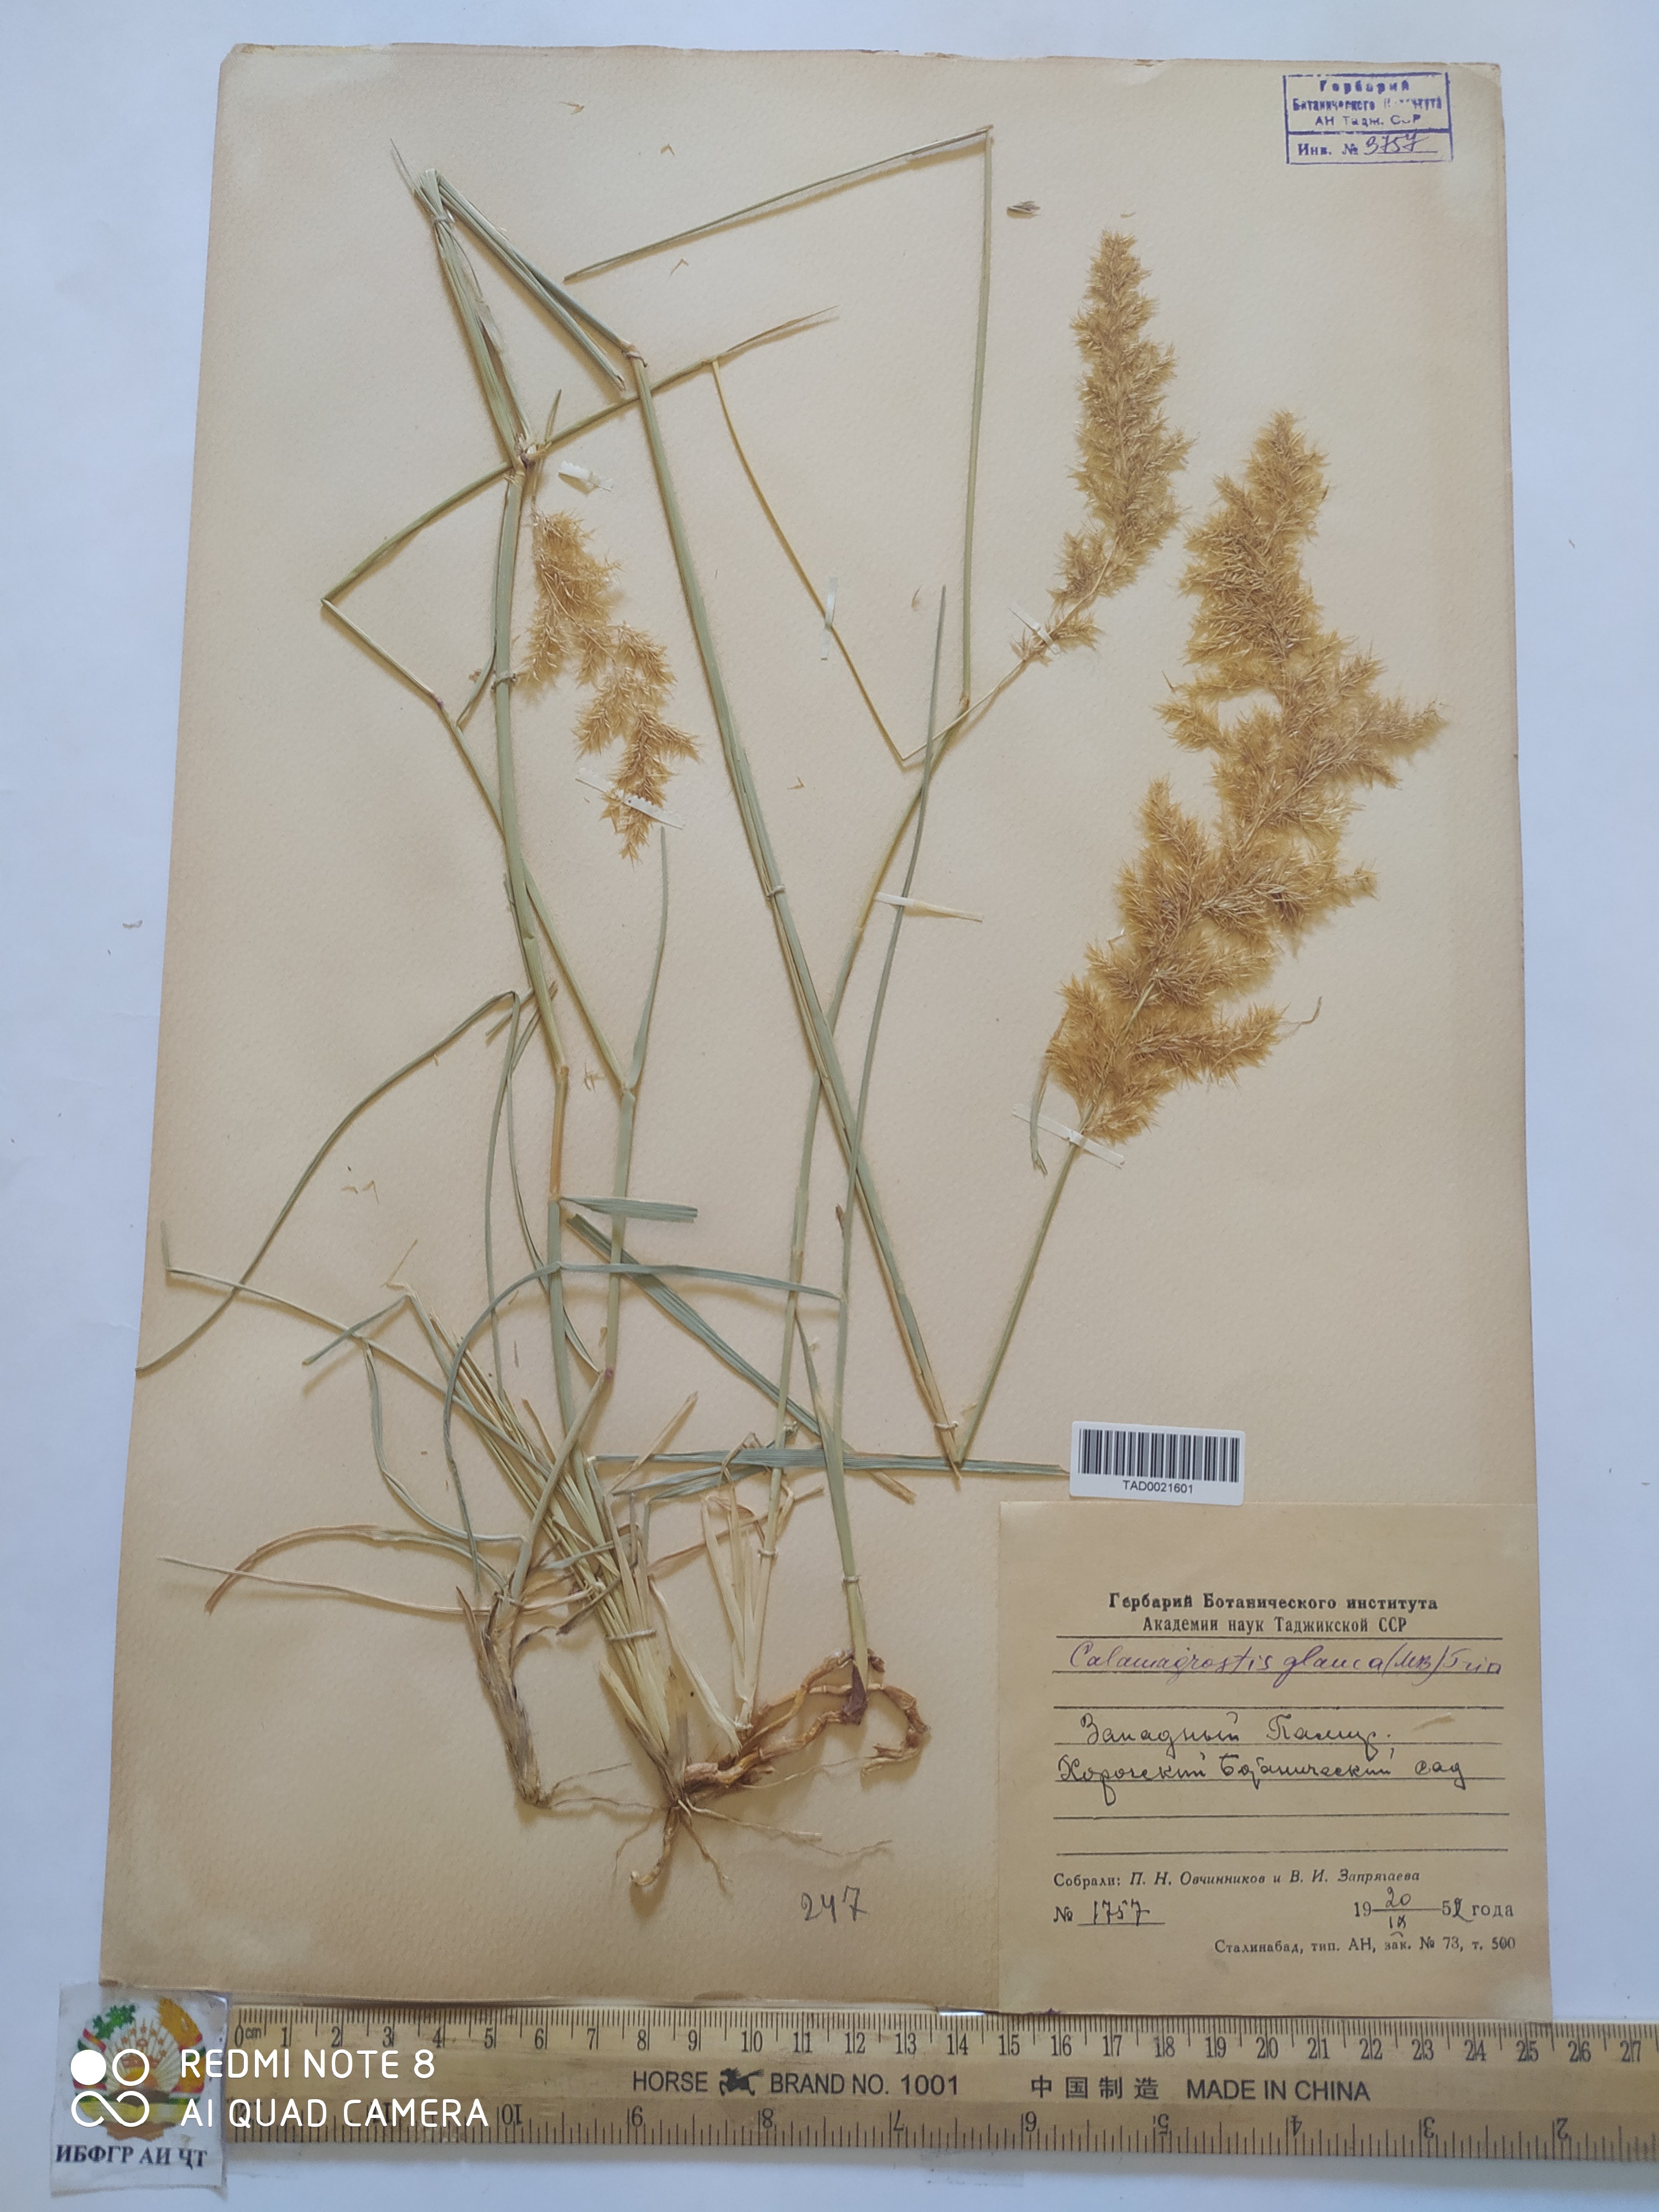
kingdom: Plantae
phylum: Tracheophyta
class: Liliopsida
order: Poales
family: Poaceae
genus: Calamagrostis
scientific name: Calamagrostis pseudophragmites
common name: Coastal small-reed
